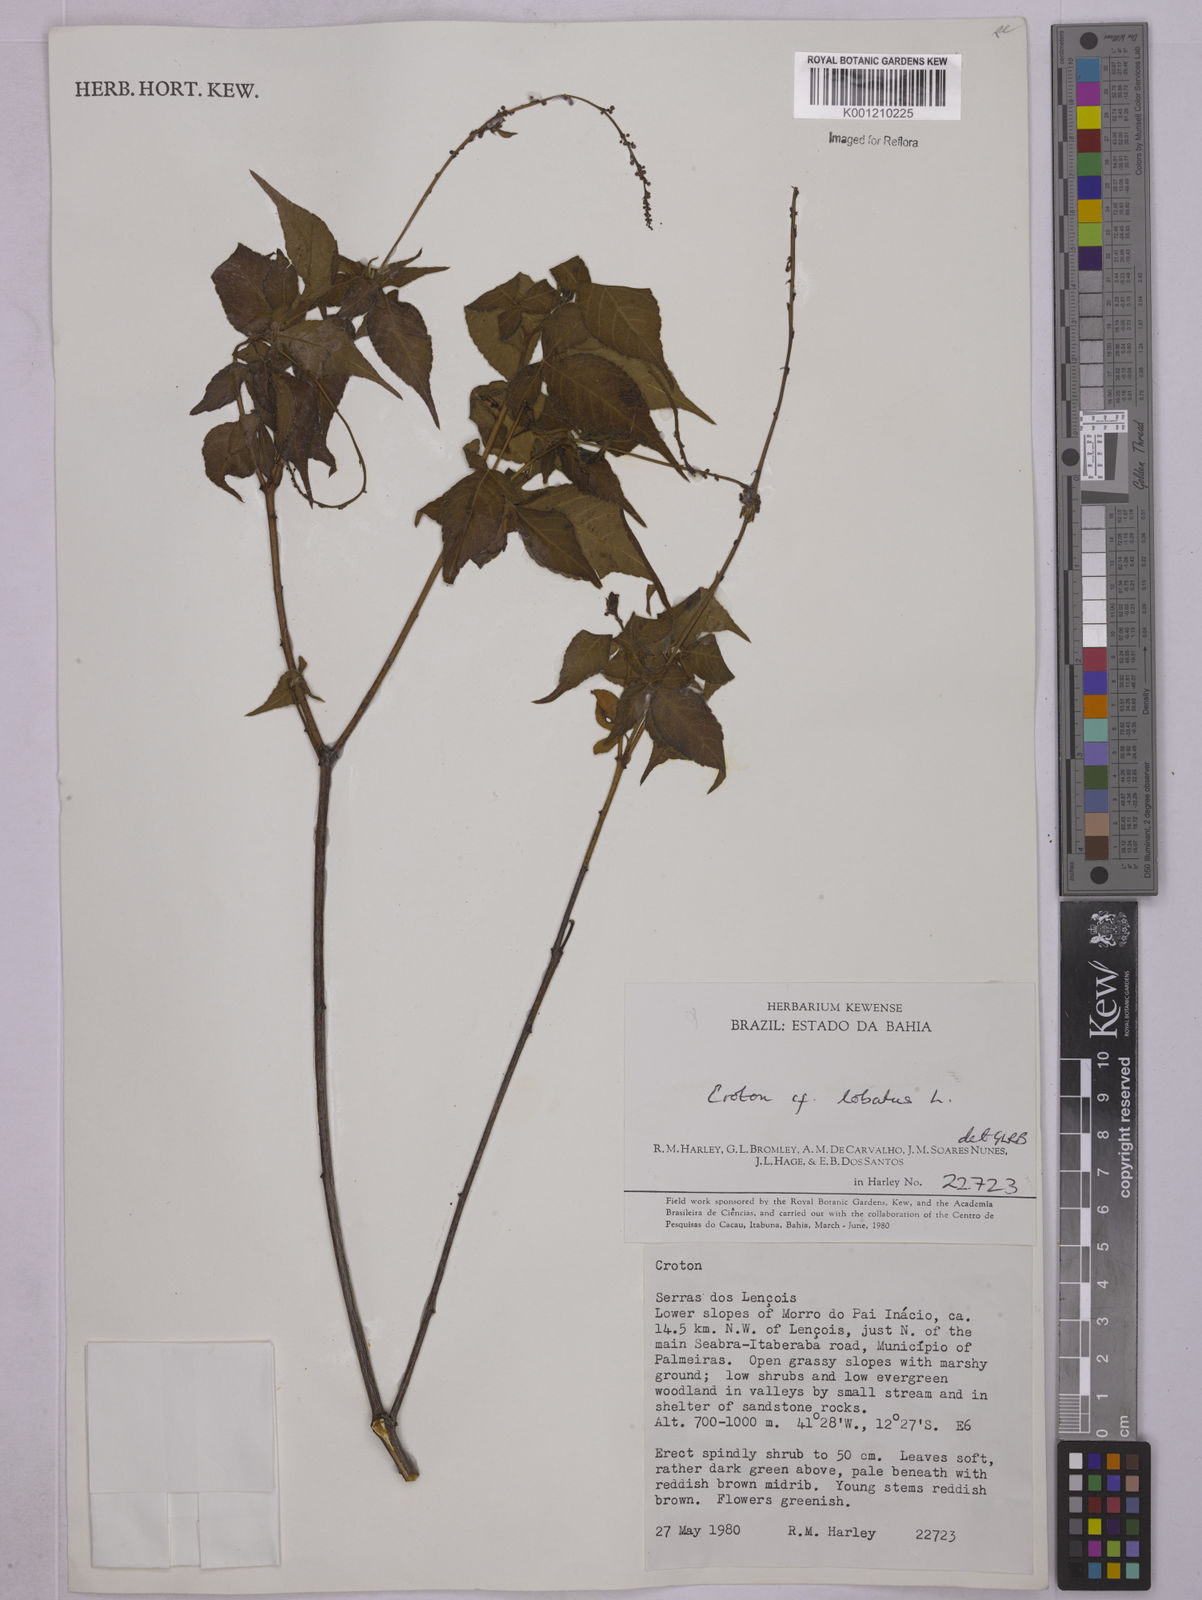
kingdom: Plantae
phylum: Tracheophyta
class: Magnoliopsida
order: Malpighiales
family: Euphorbiaceae
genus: Astraea
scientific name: Astraea lobata
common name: Lobed croton
